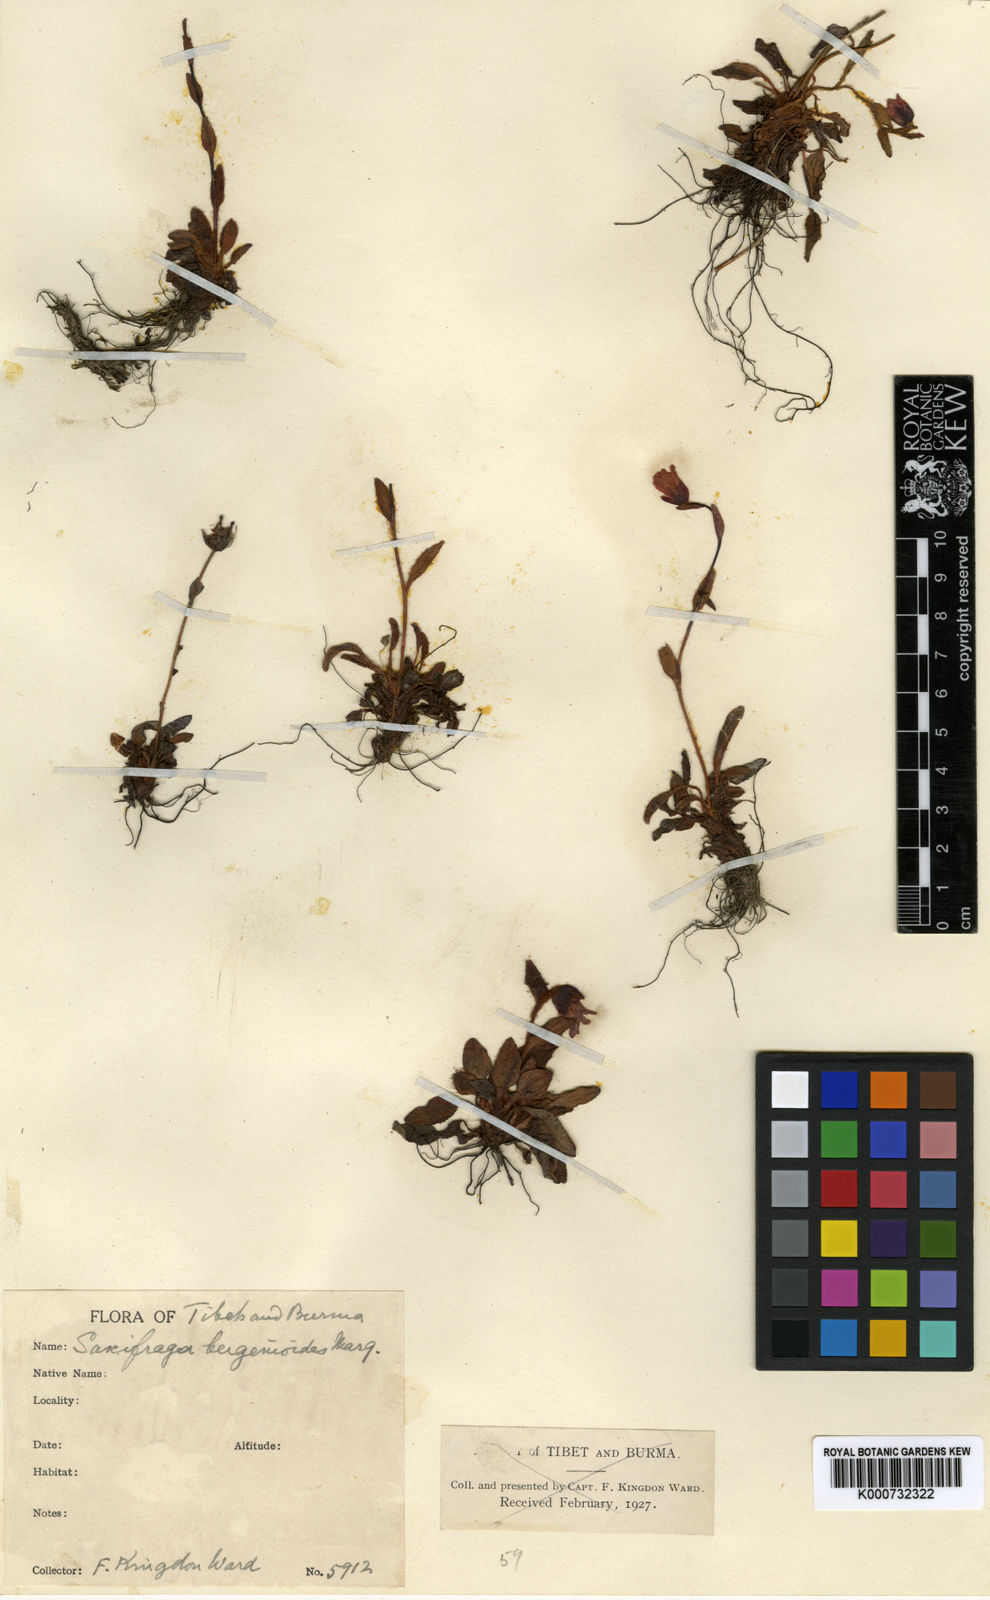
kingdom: Plantae
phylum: Tracheophyta
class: Magnoliopsida
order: Saxifragales
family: Saxifragaceae
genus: Saxifraga
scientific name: Saxifraga bergenioides
